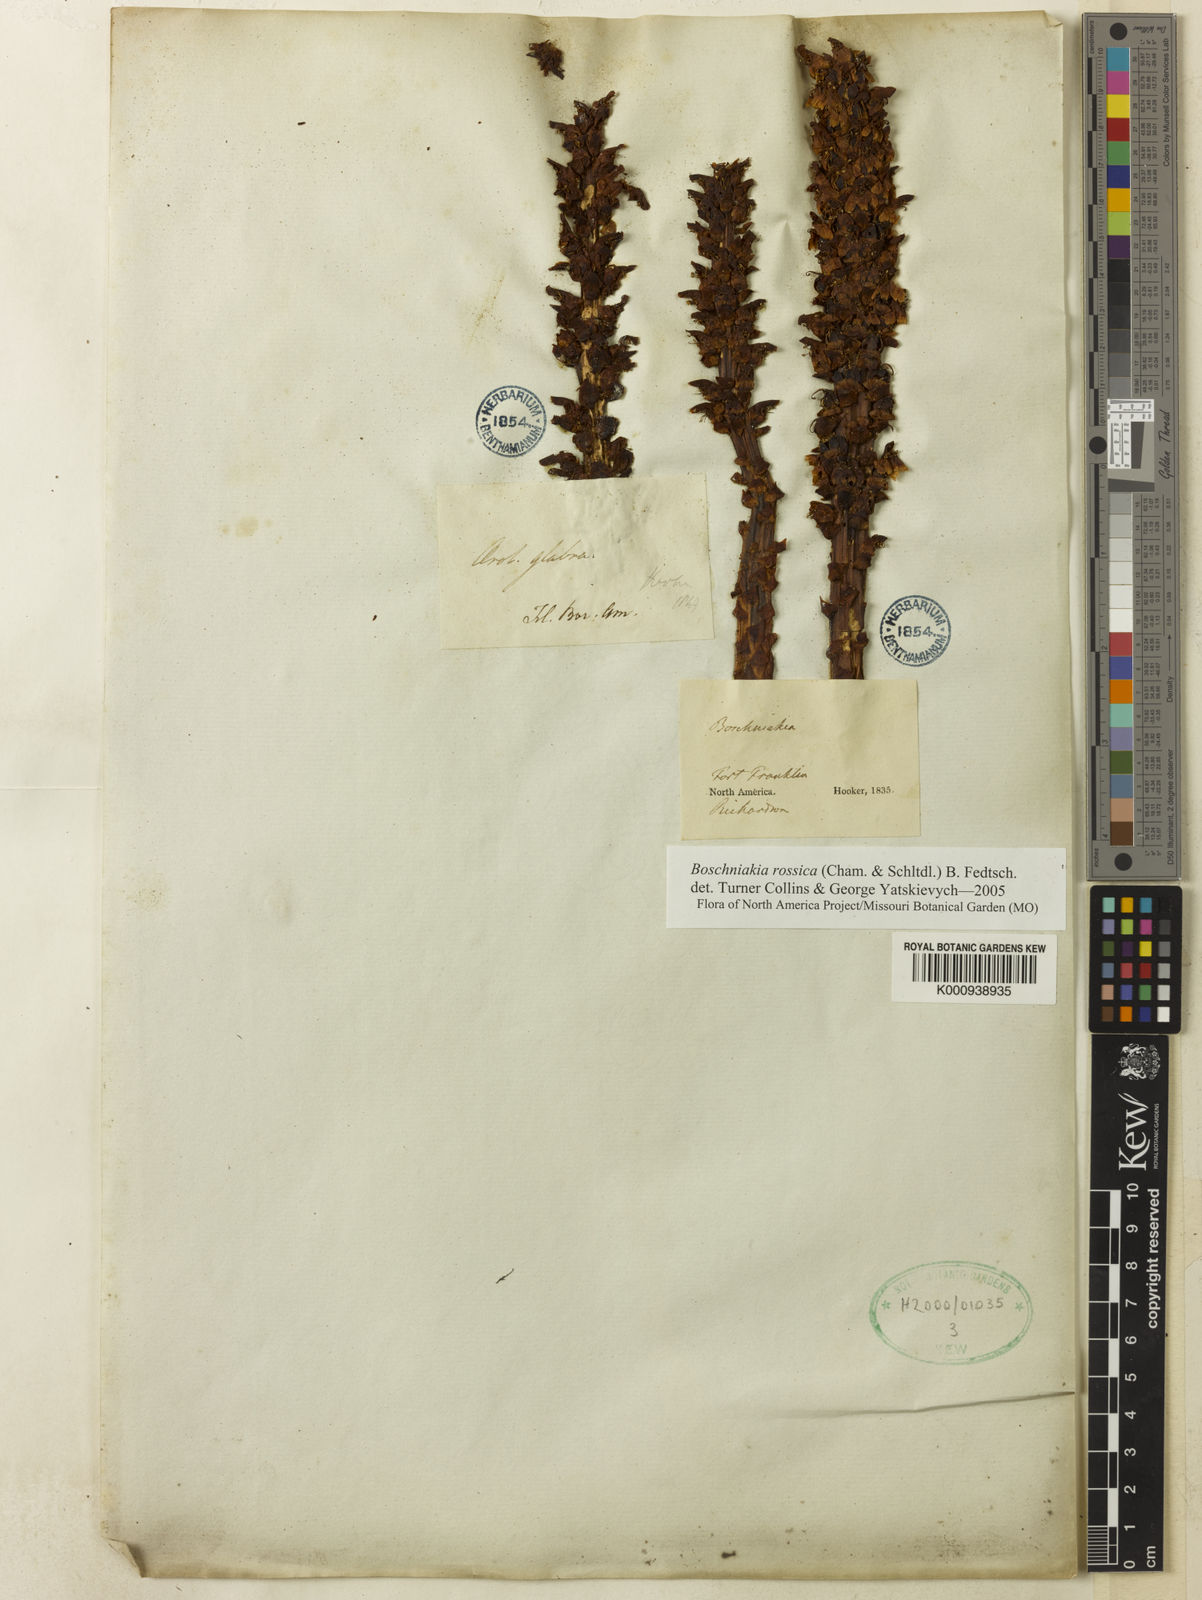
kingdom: Plantae
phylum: Tracheophyta
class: Magnoliopsida
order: Lamiales
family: Orobanchaceae
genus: Boschniakia
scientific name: Boschniakia
